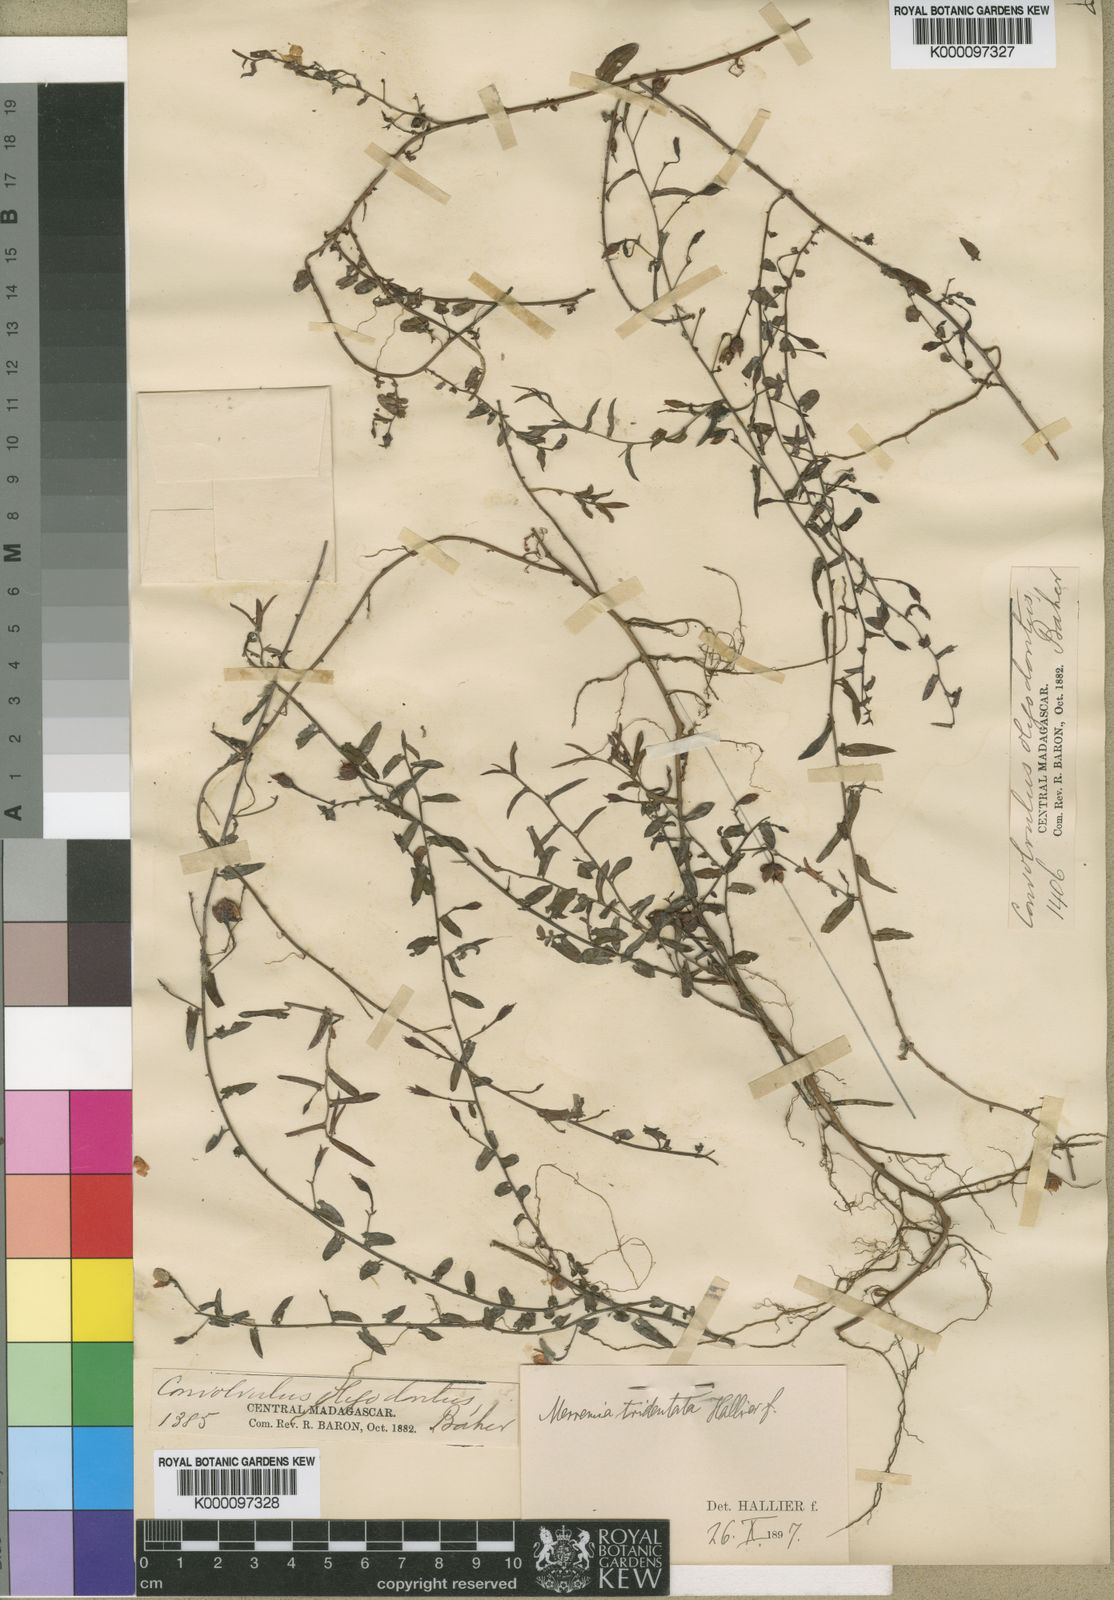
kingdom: Plantae
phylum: Tracheophyta
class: Magnoliopsida
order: Solanales
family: Convolvulaceae
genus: Xenostegia
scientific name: Xenostegia tridentata
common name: African morningvine
